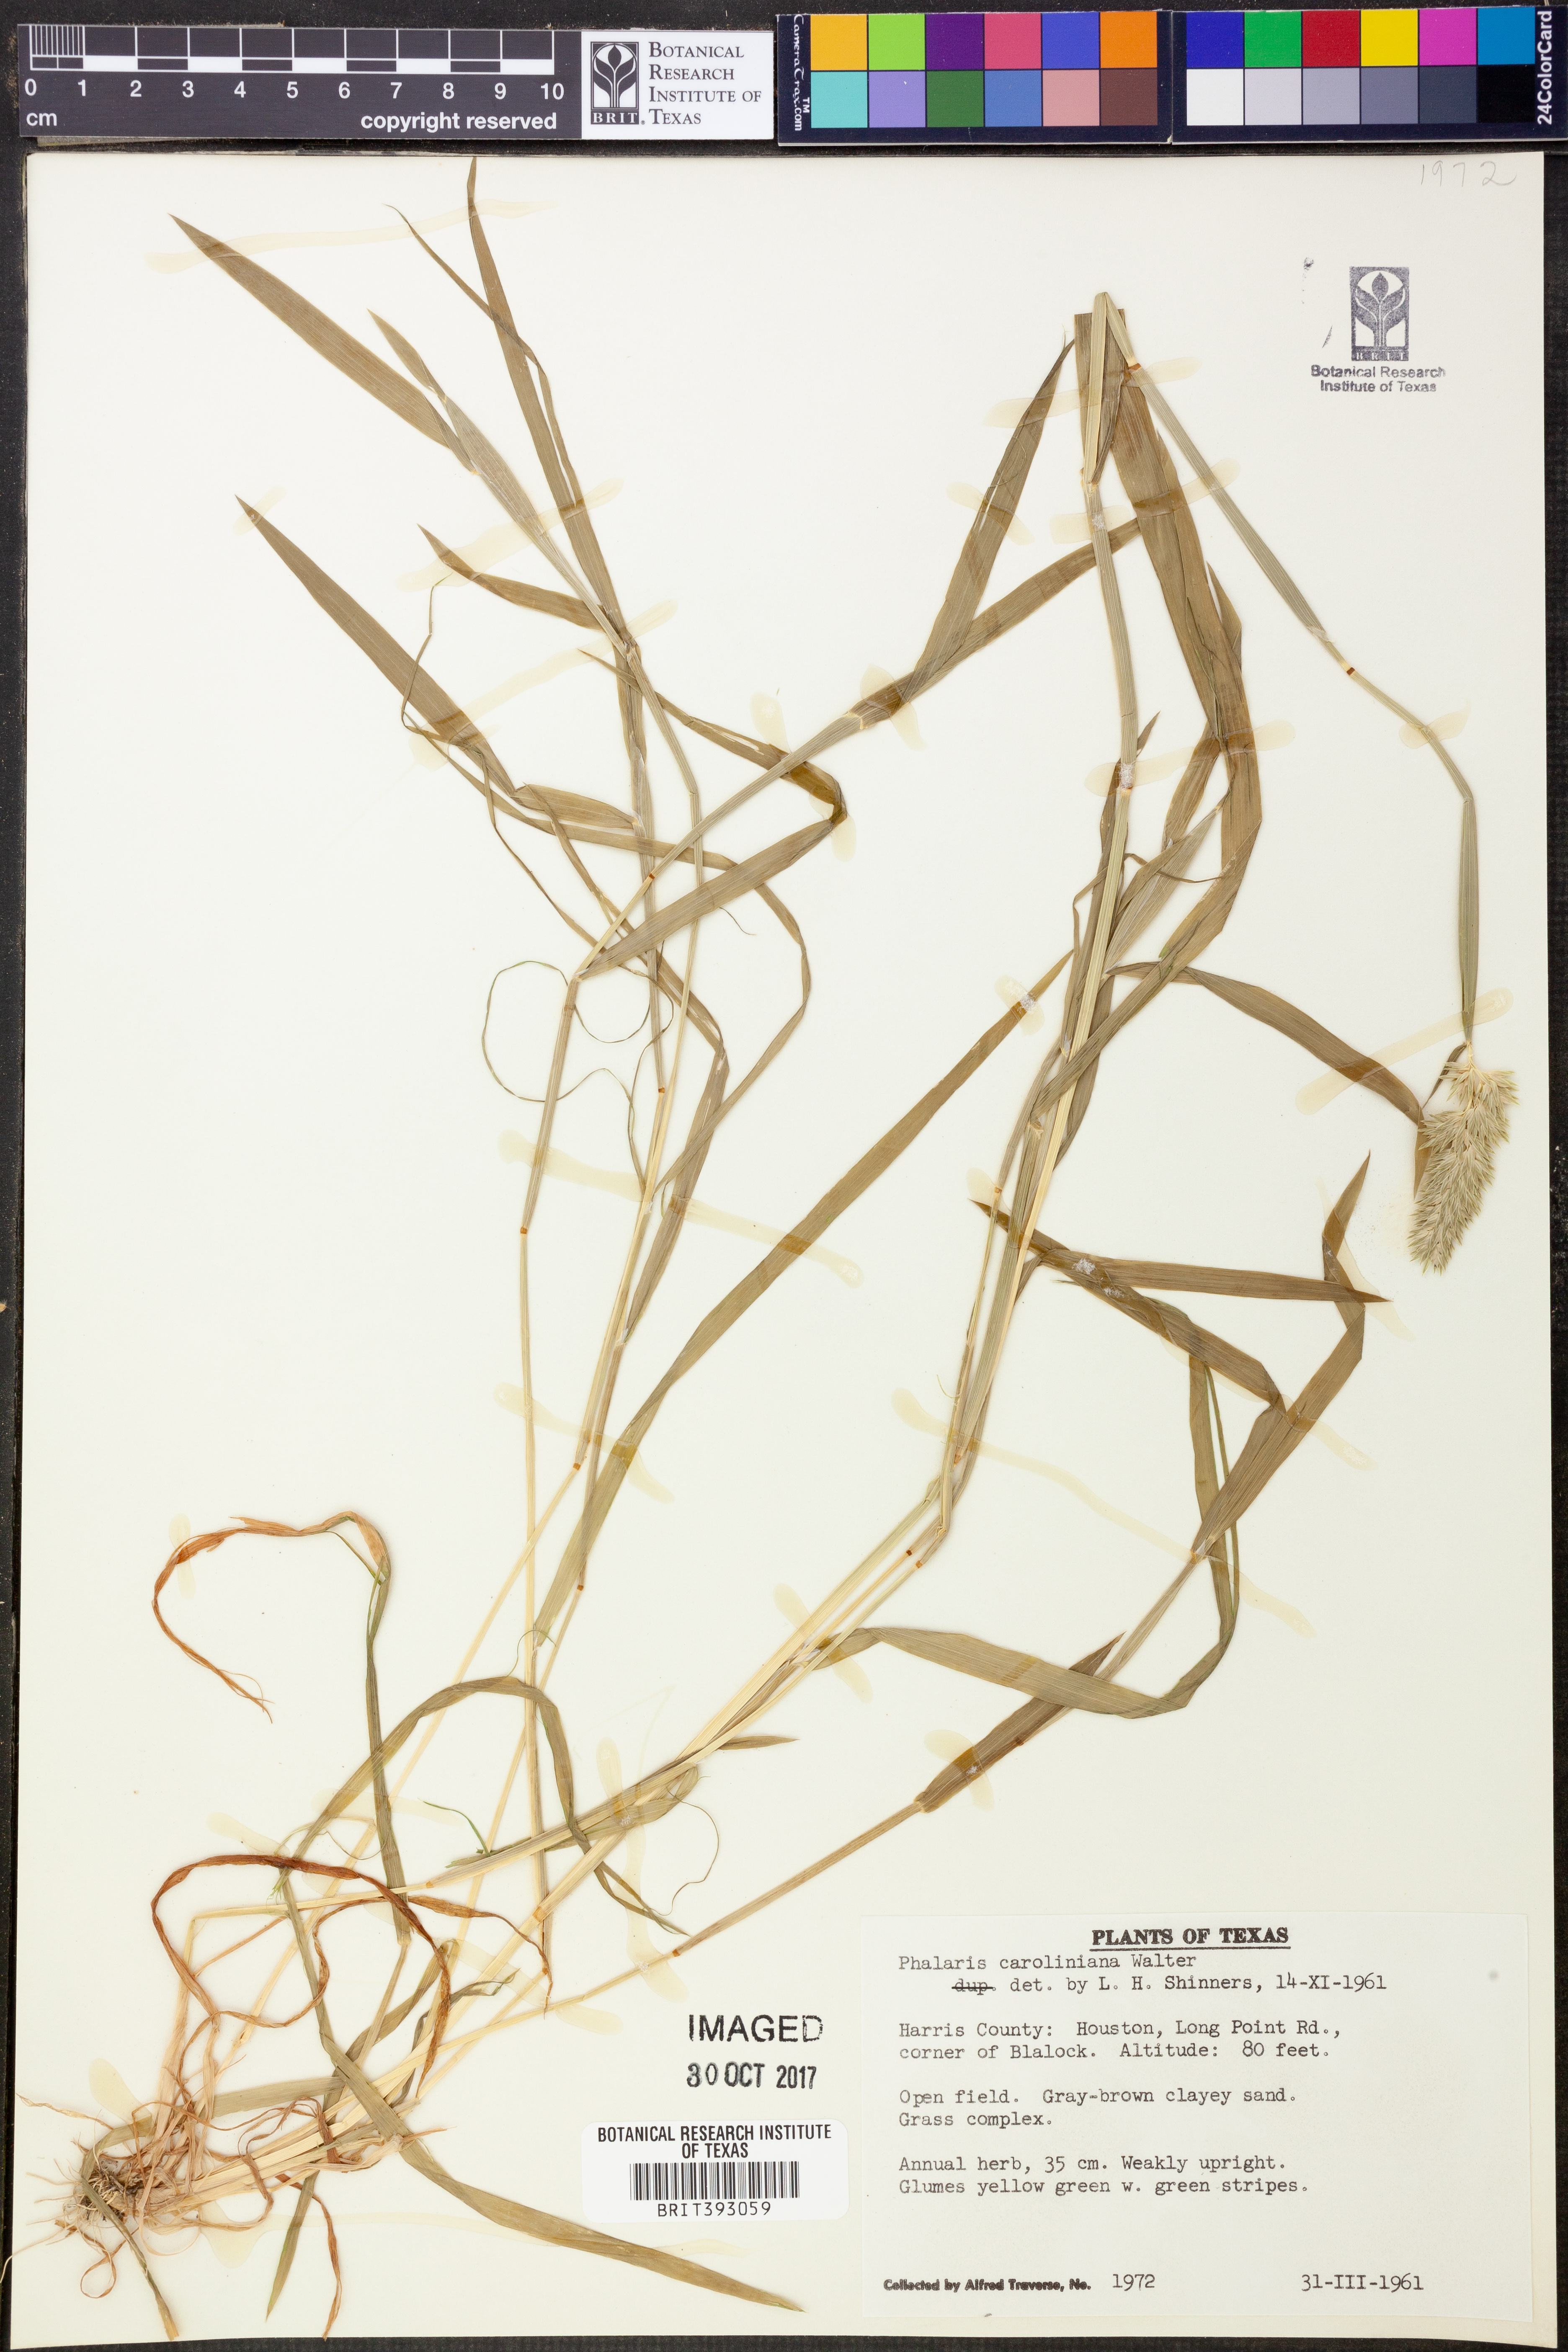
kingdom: Plantae
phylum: Tracheophyta
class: Liliopsida
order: Poales
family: Poaceae
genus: Phalaris
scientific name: Phalaris caroliniana
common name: May grass
